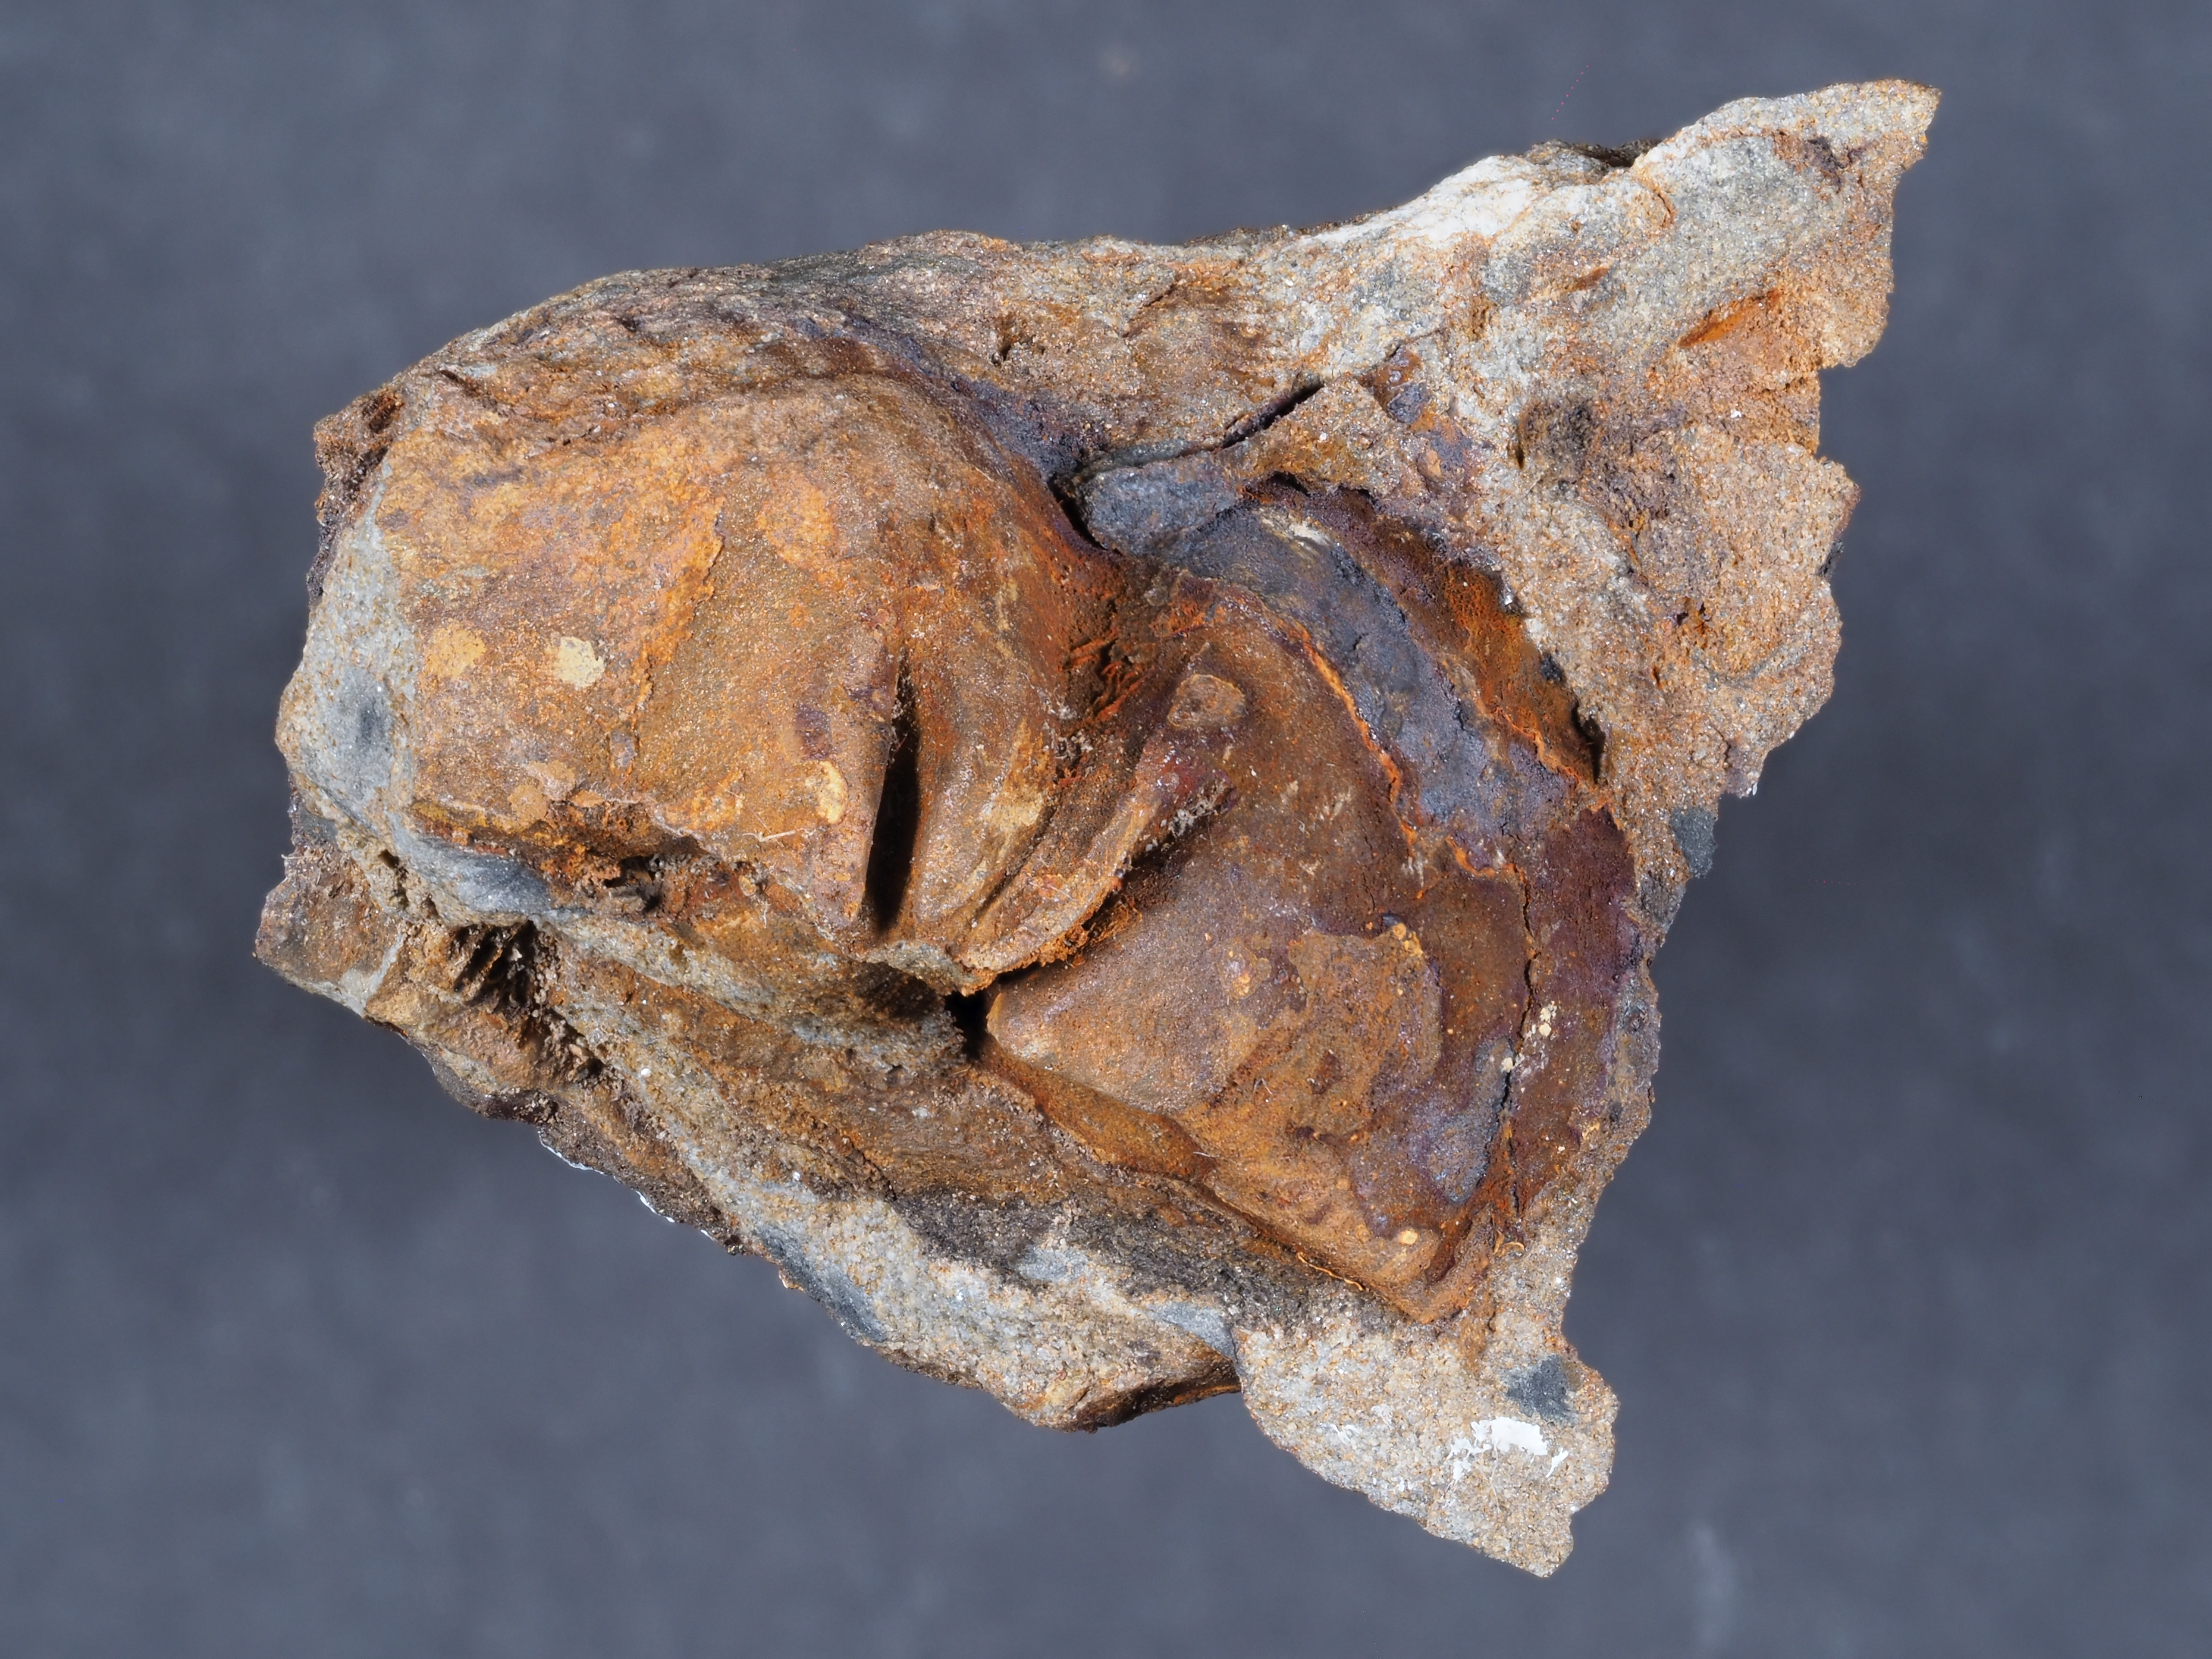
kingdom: Animalia
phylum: Brachiopoda
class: Rhynchonellata
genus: Tenuicostella
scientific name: Tenuicostella
